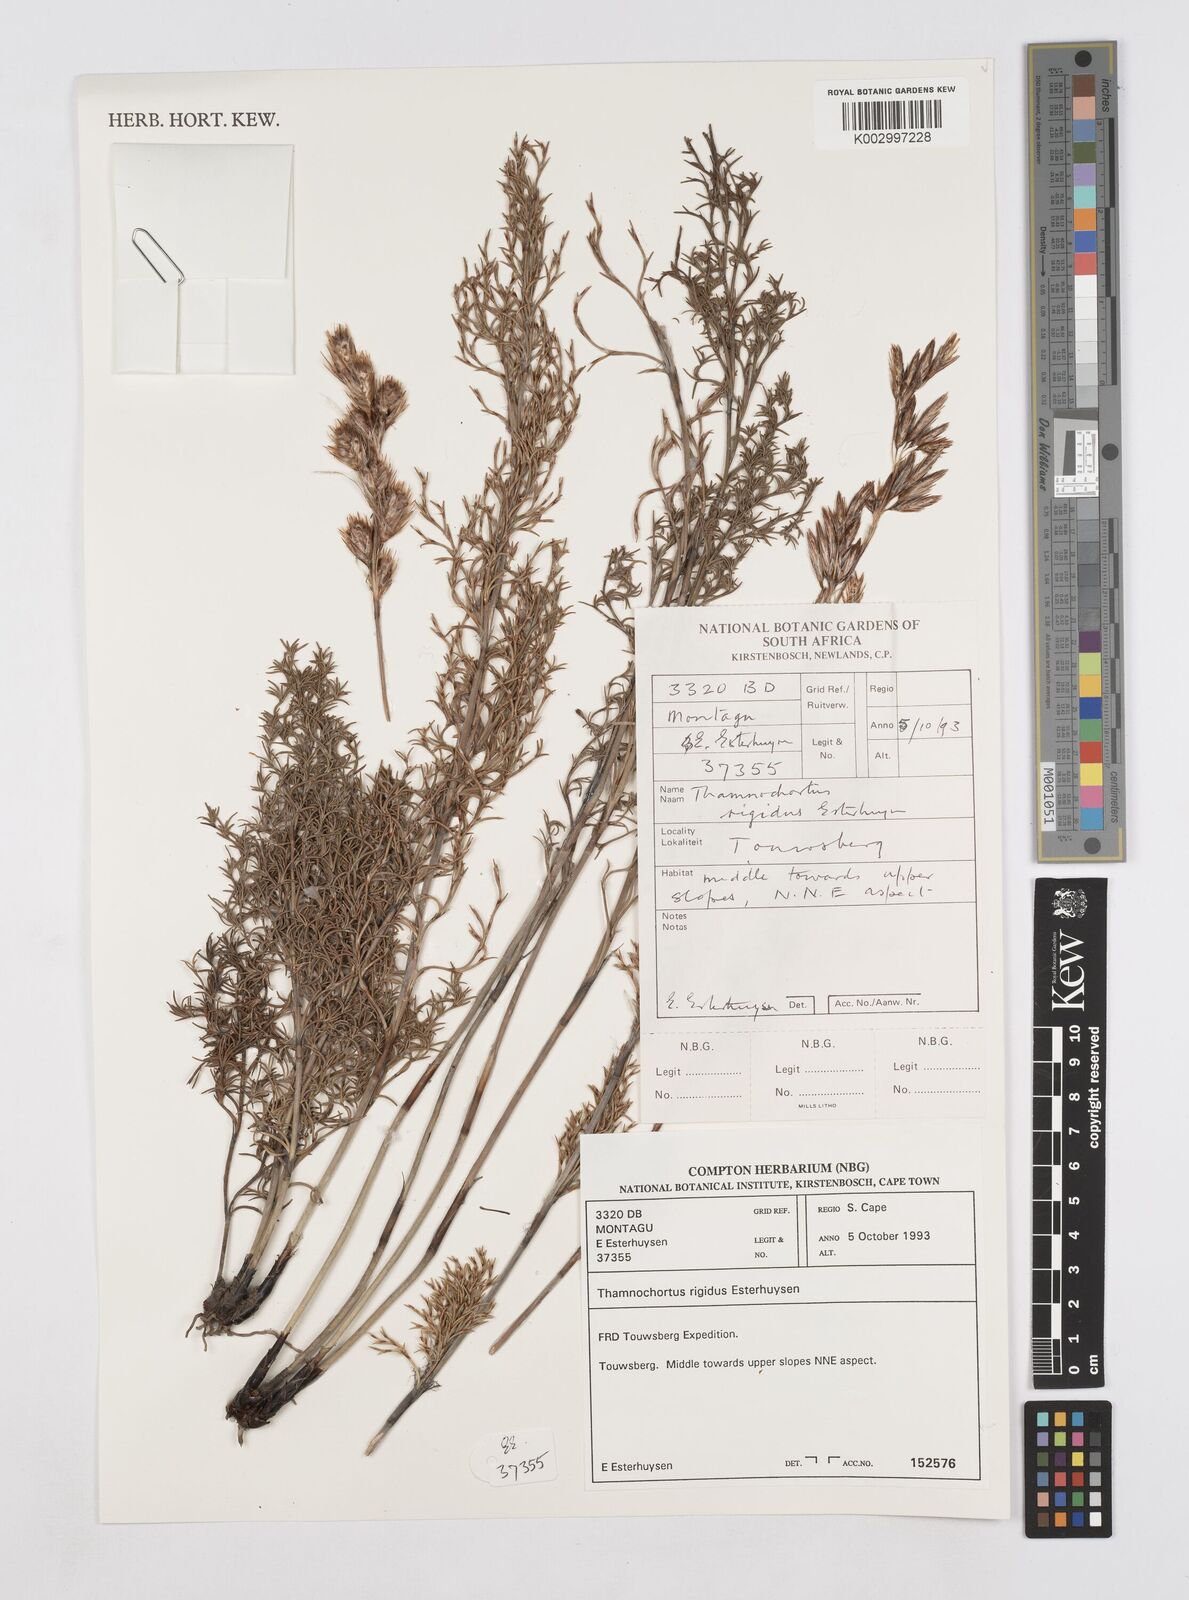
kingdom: Plantae
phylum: Tracheophyta
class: Liliopsida
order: Poales
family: Restionaceae
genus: Thamnochortus
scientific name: Thamnochortus rigidus
